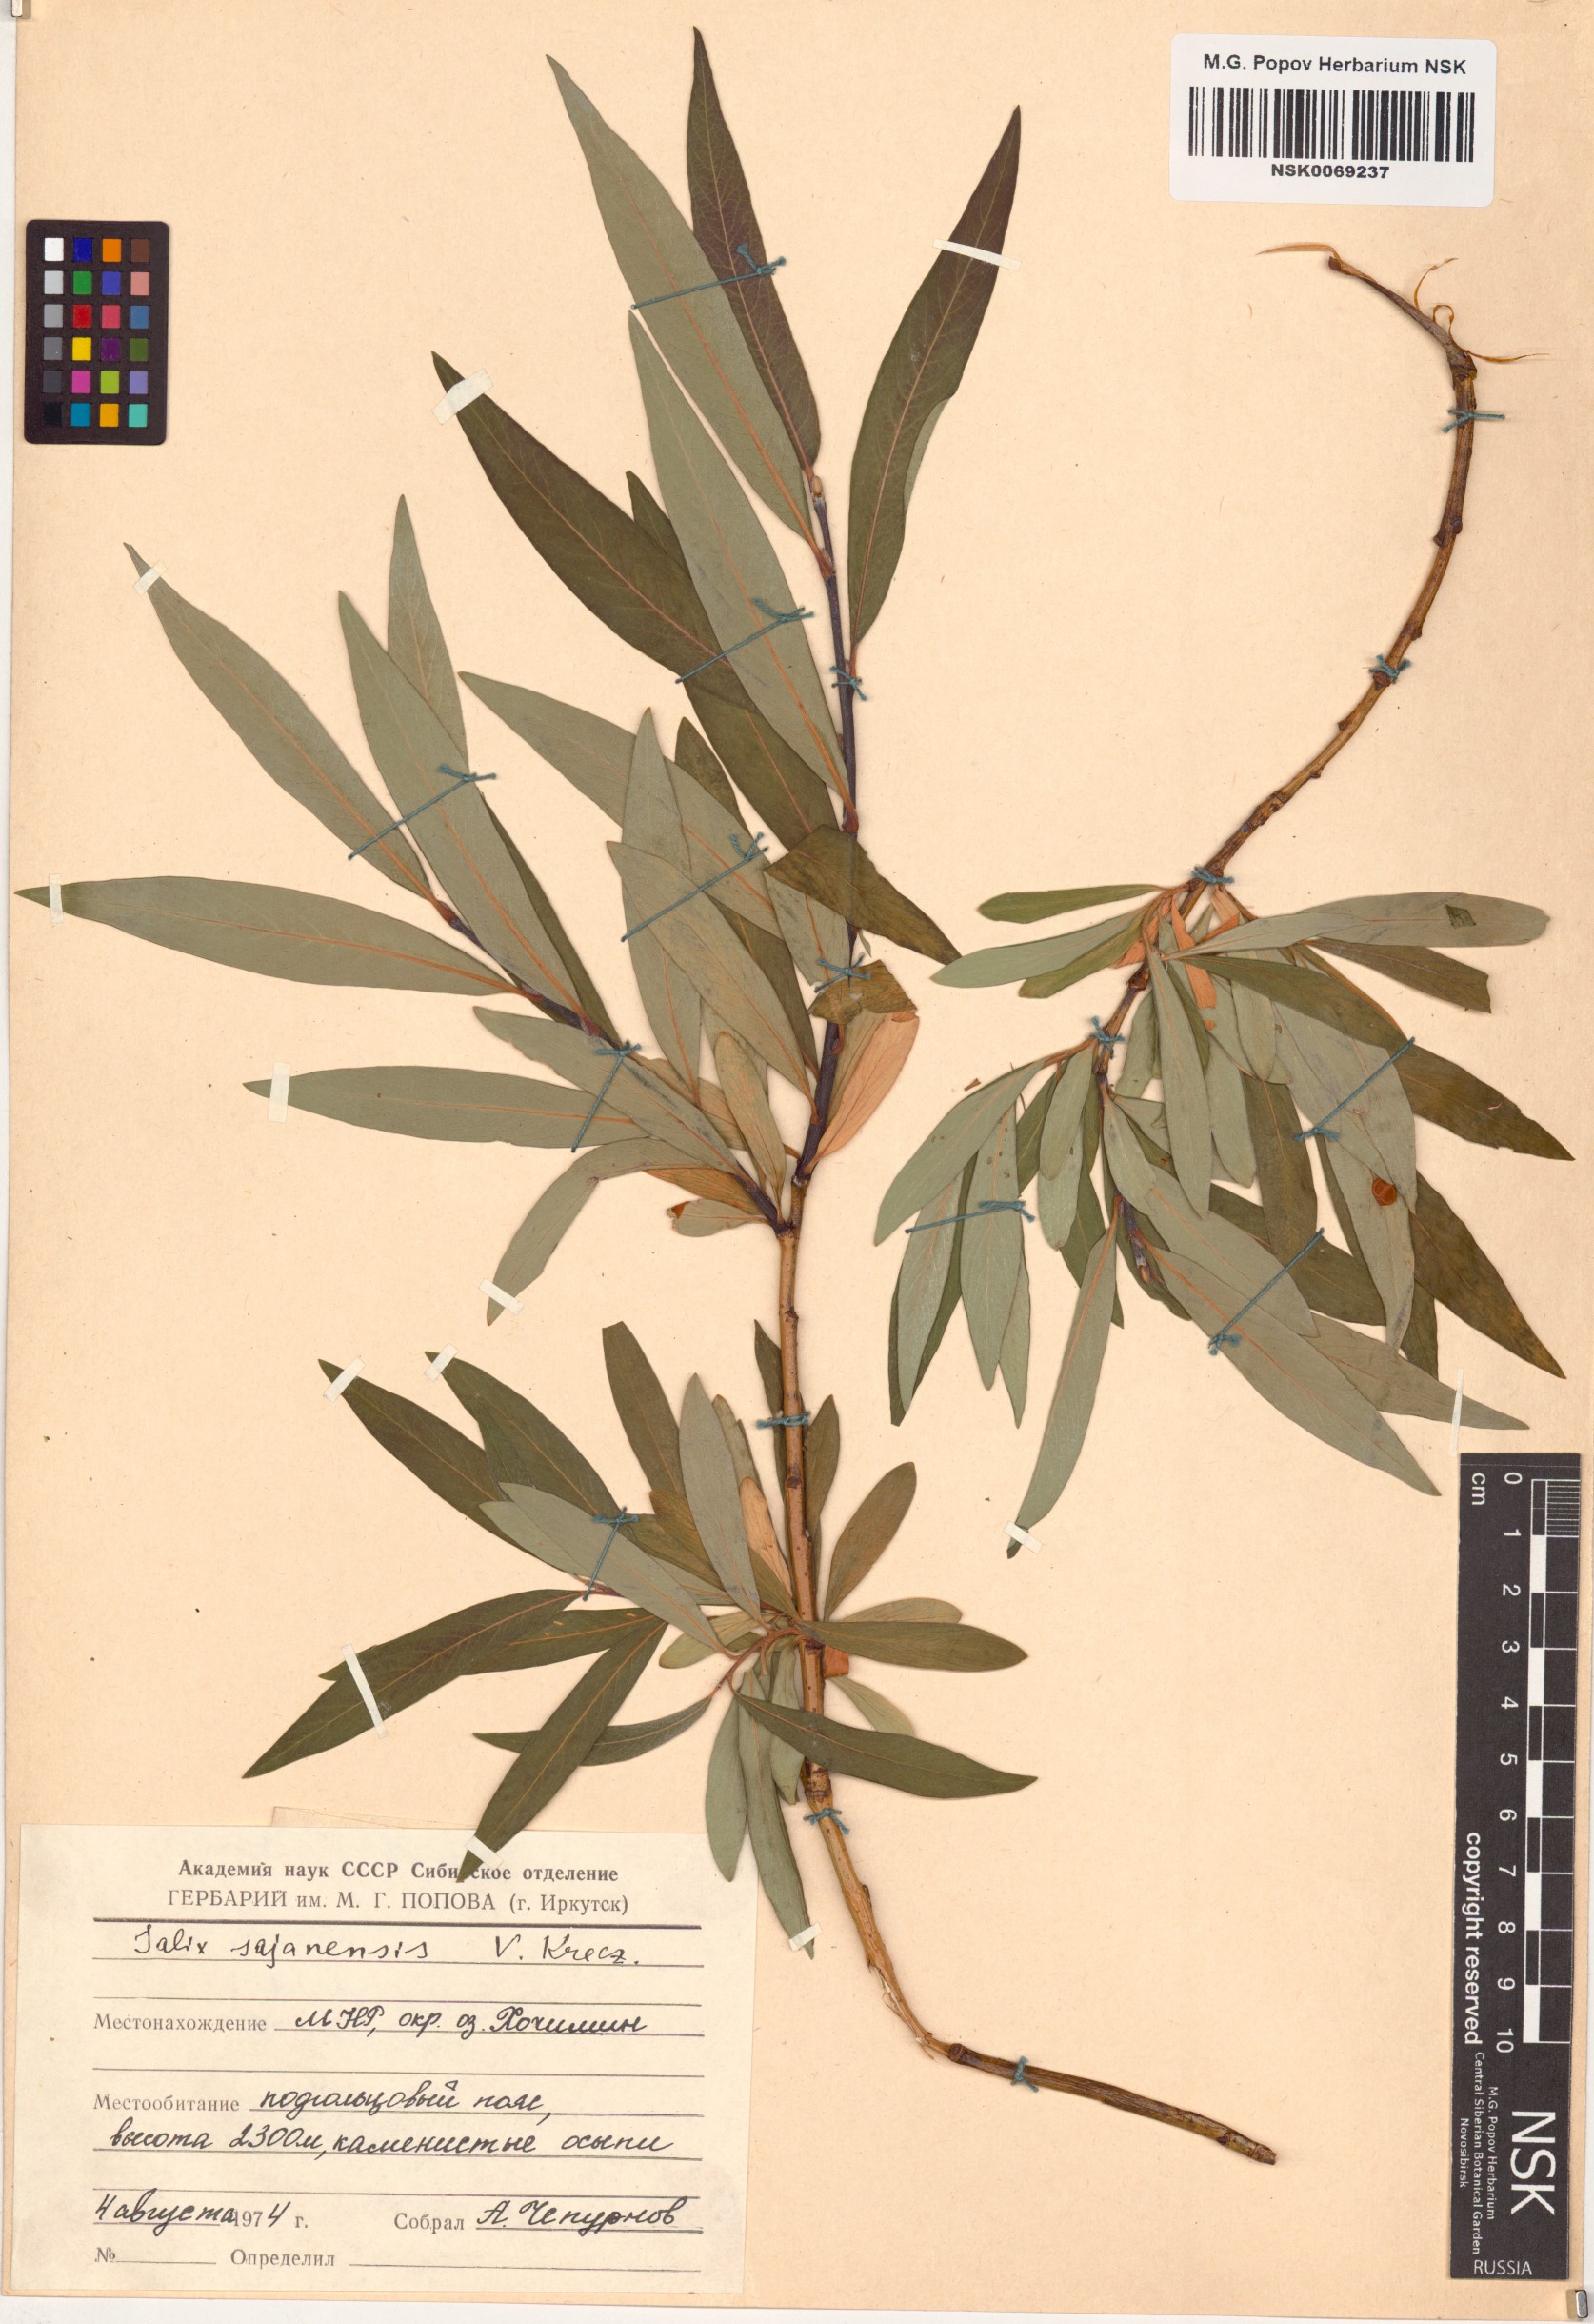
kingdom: Plantae
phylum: Tracheophyta
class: Magnoliopsida
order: Malpighiales
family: Salicaceae
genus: Salix
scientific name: Salix sajanensis
